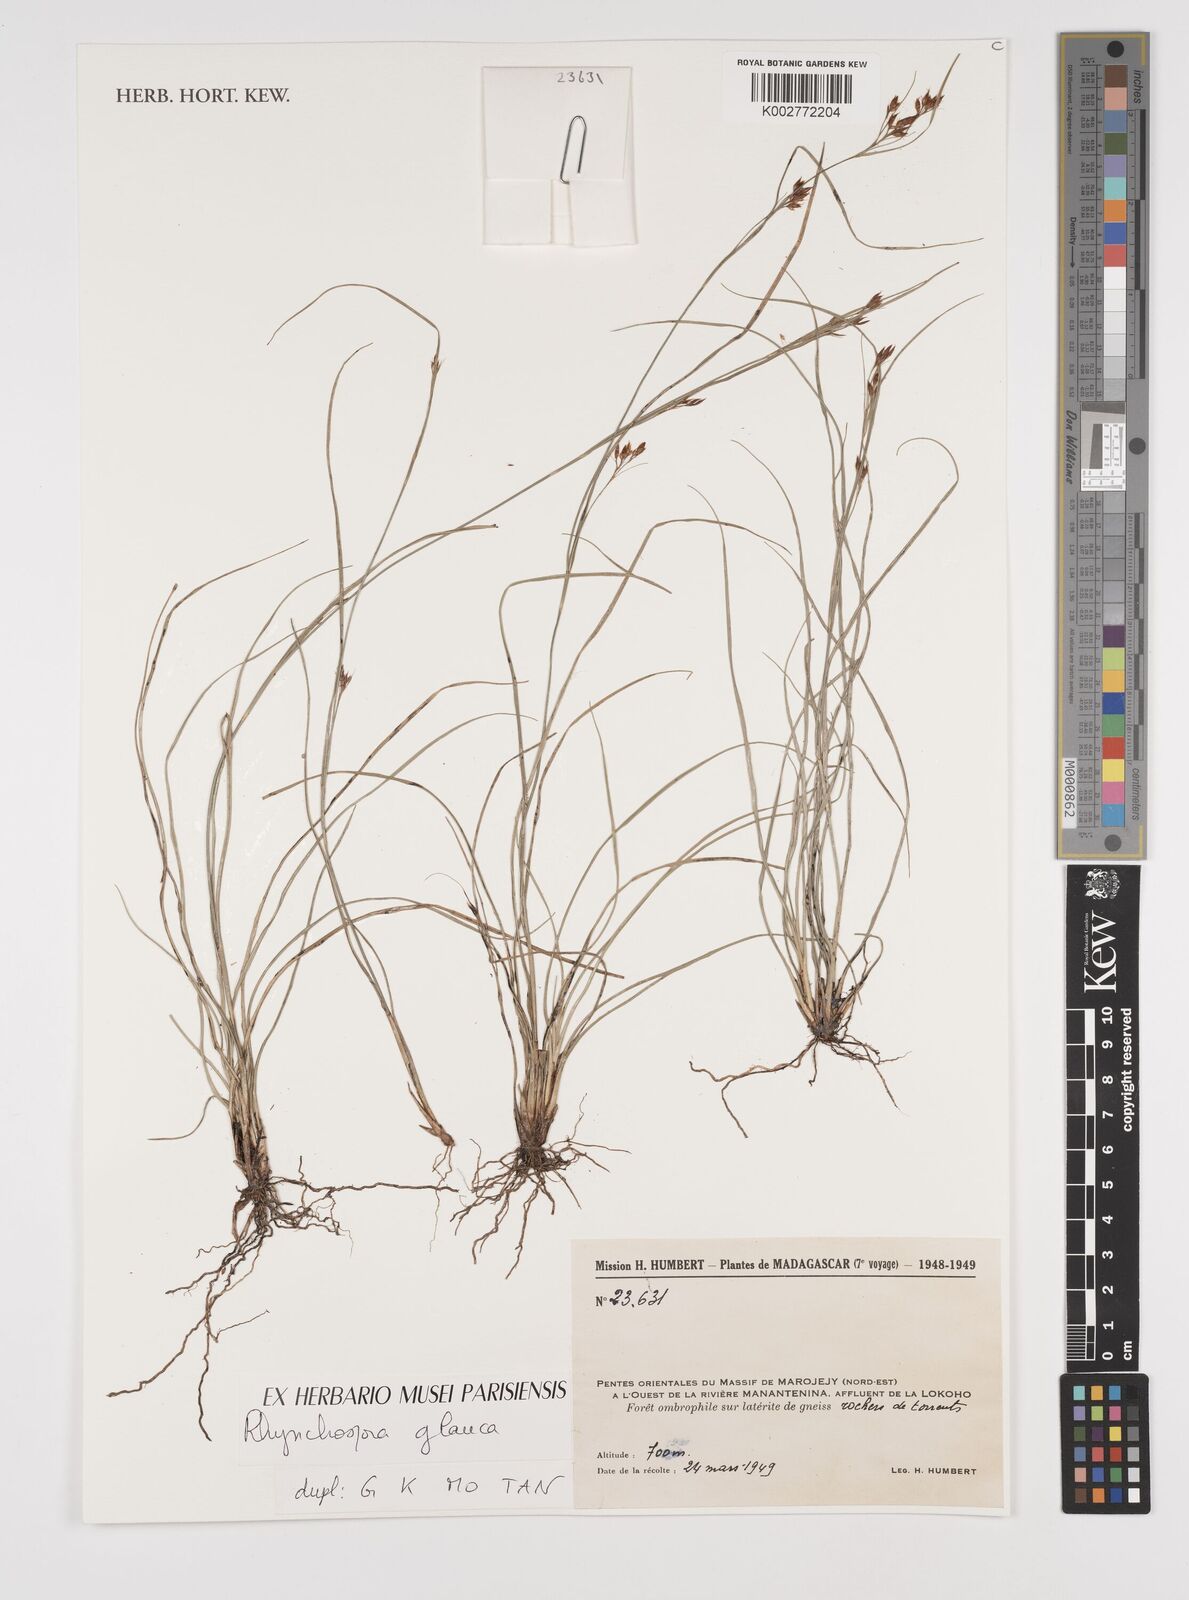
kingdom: Plantae
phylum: Tracheophyta
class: Liliopsida
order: Poales
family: Cyperaceae
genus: Rhynchospora
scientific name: Rhynchospora rugosa
